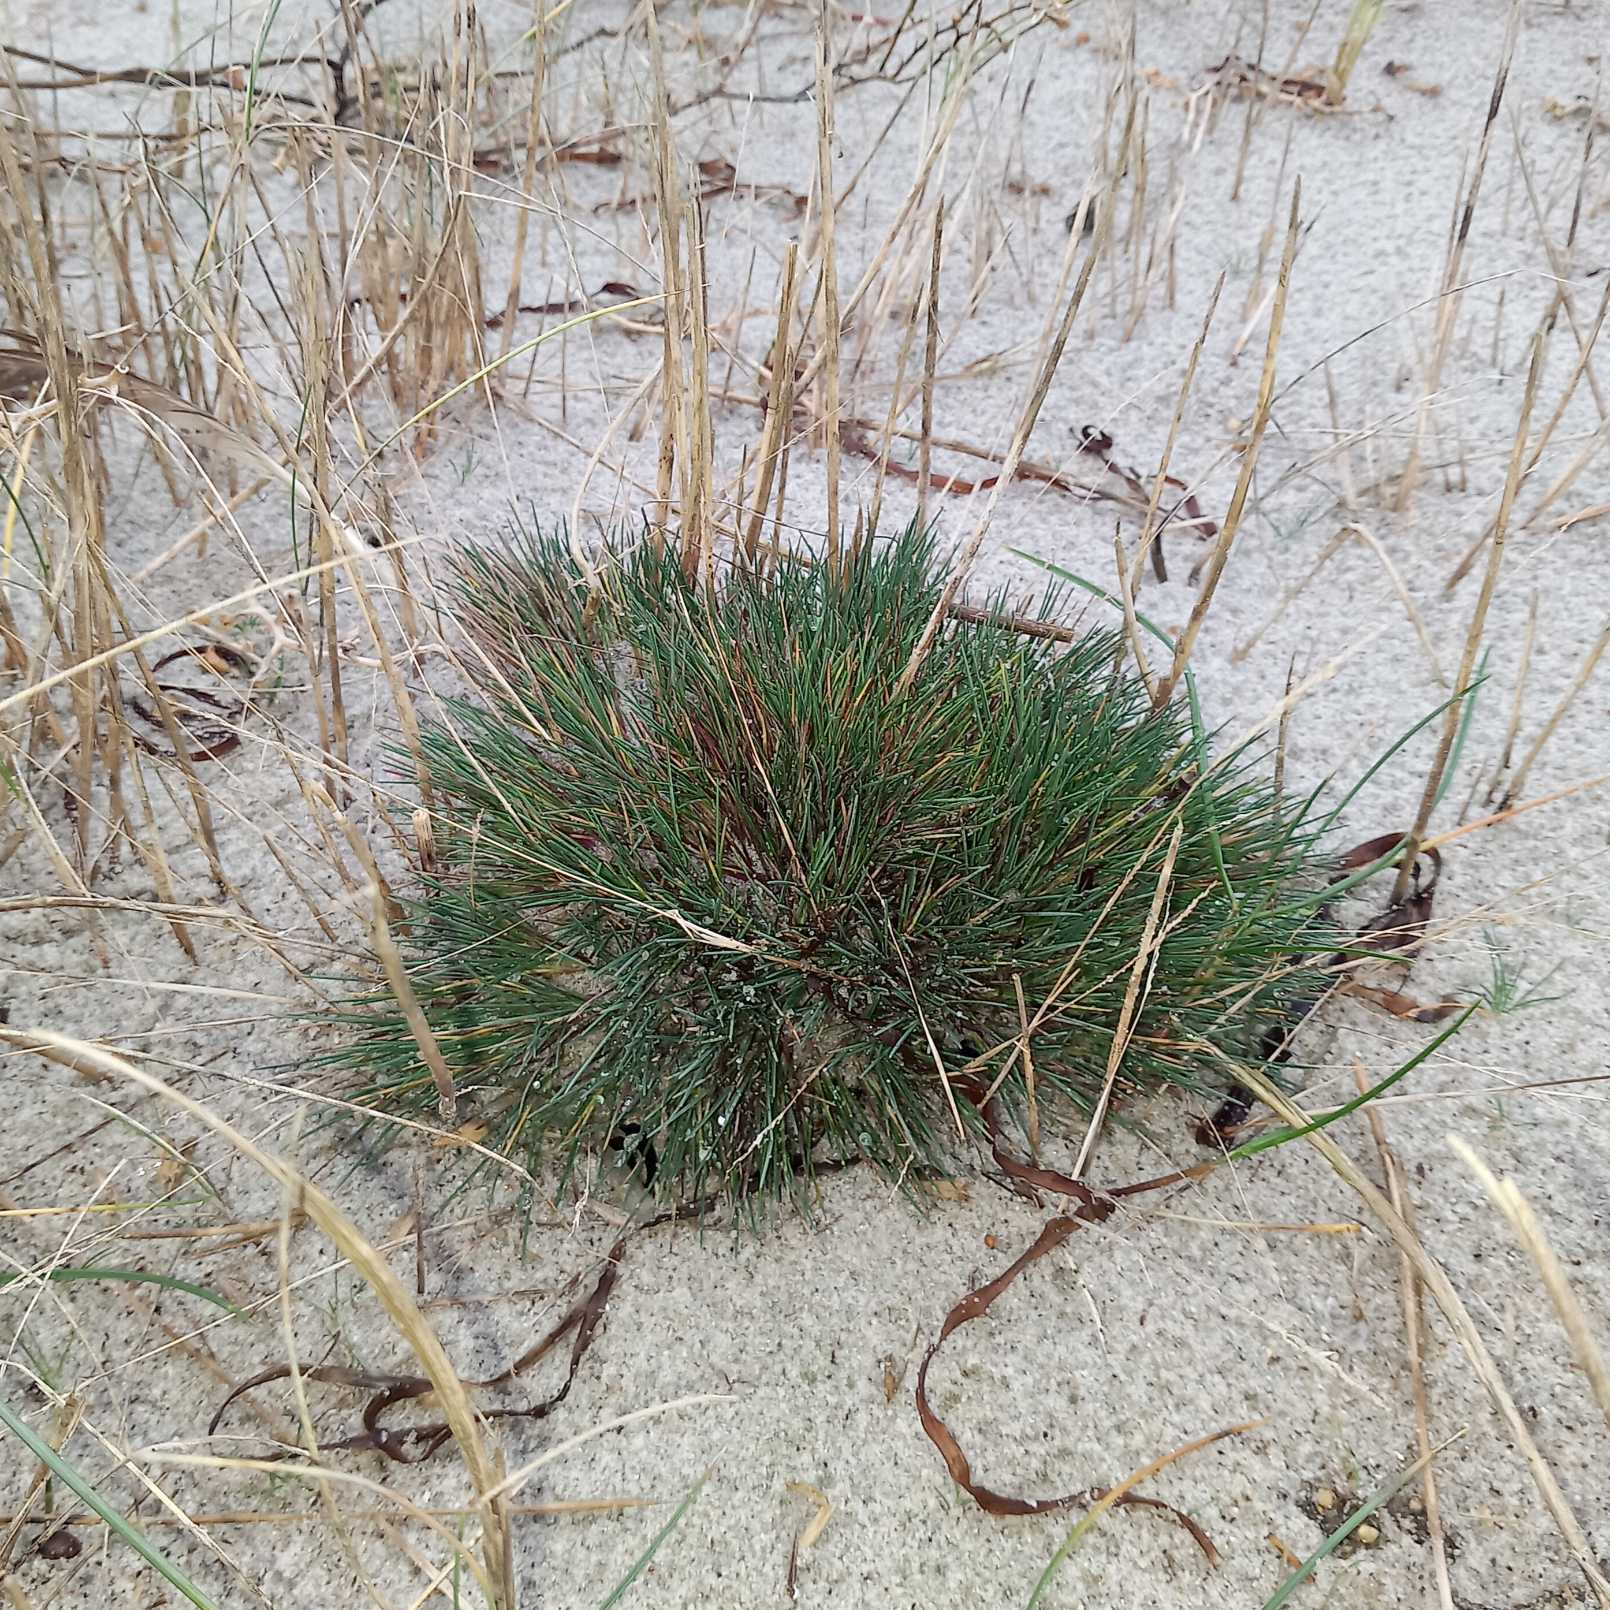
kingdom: Plantae
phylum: Tracheophyta
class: Liliopsida
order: Poales
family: Poaceae
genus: Corynephorus
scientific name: Corynephorus canescens
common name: Sandskæg
